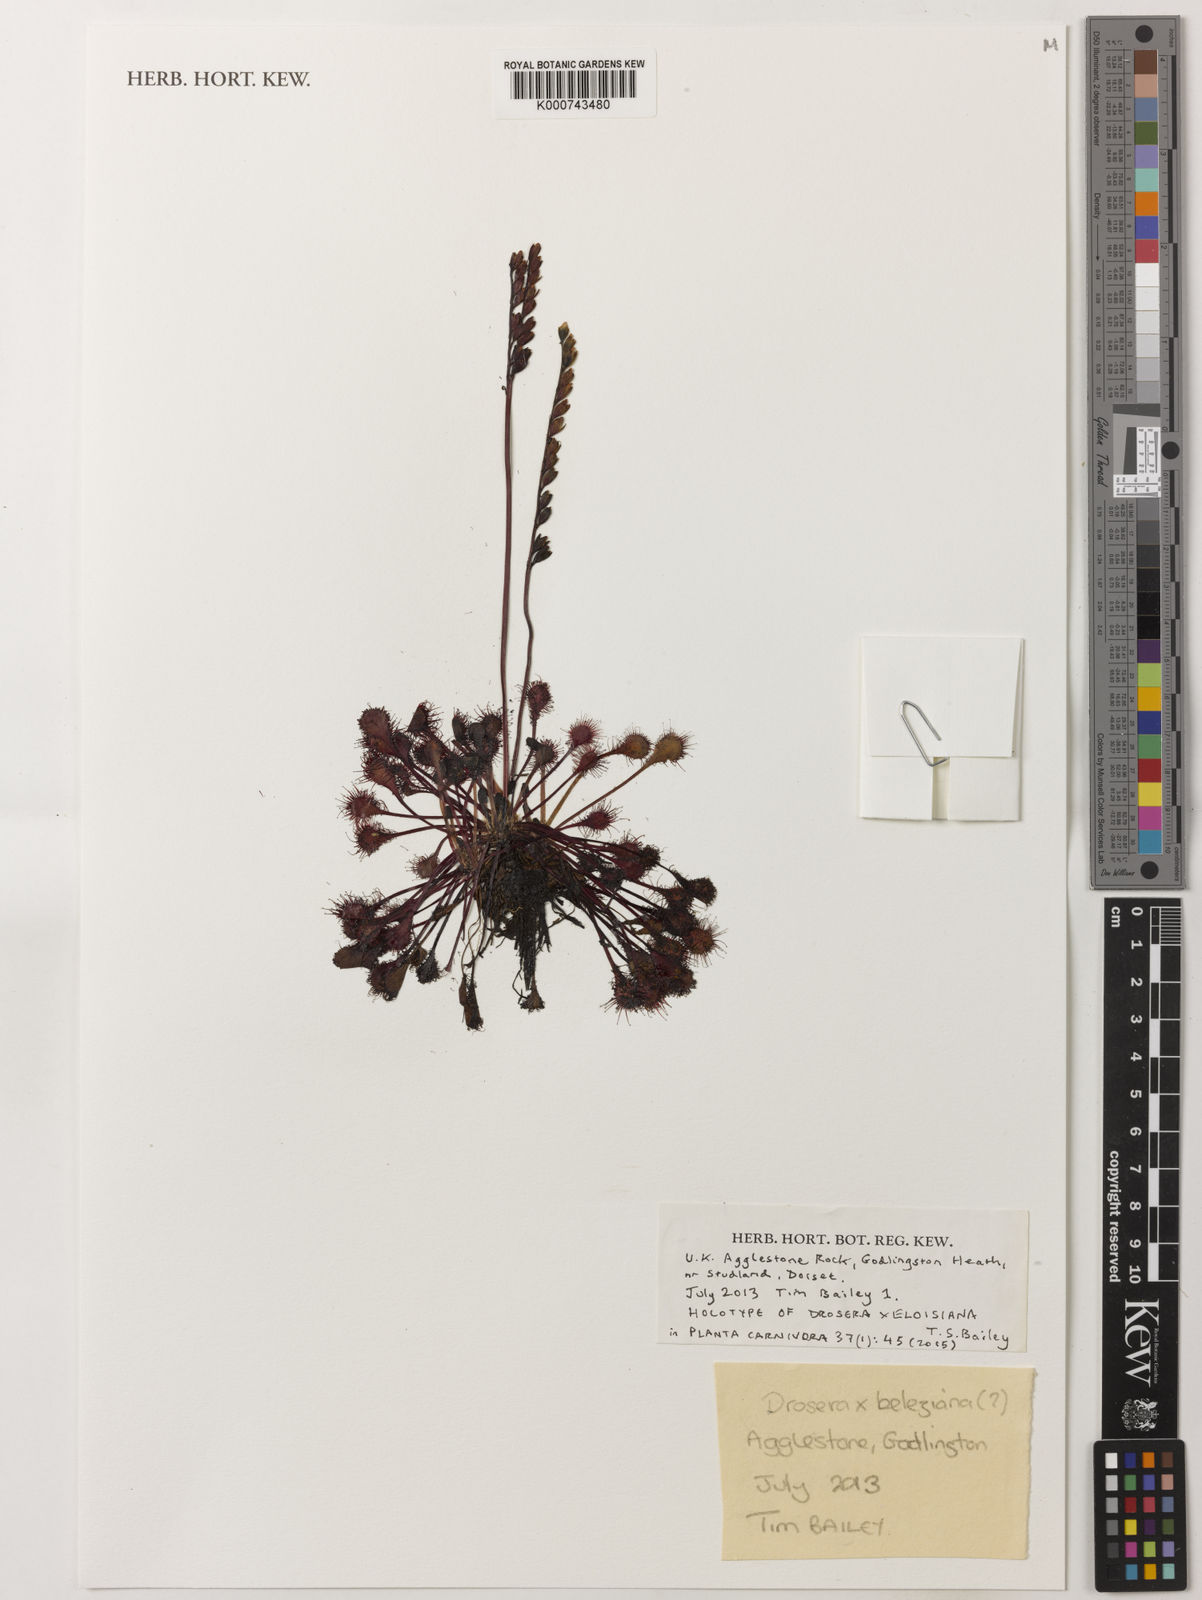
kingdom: Plantae
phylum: Tracheophyta
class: Magnoliopsida
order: Caryophyllales
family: Droseraceae
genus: Drosera
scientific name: Drosera eloisiana
